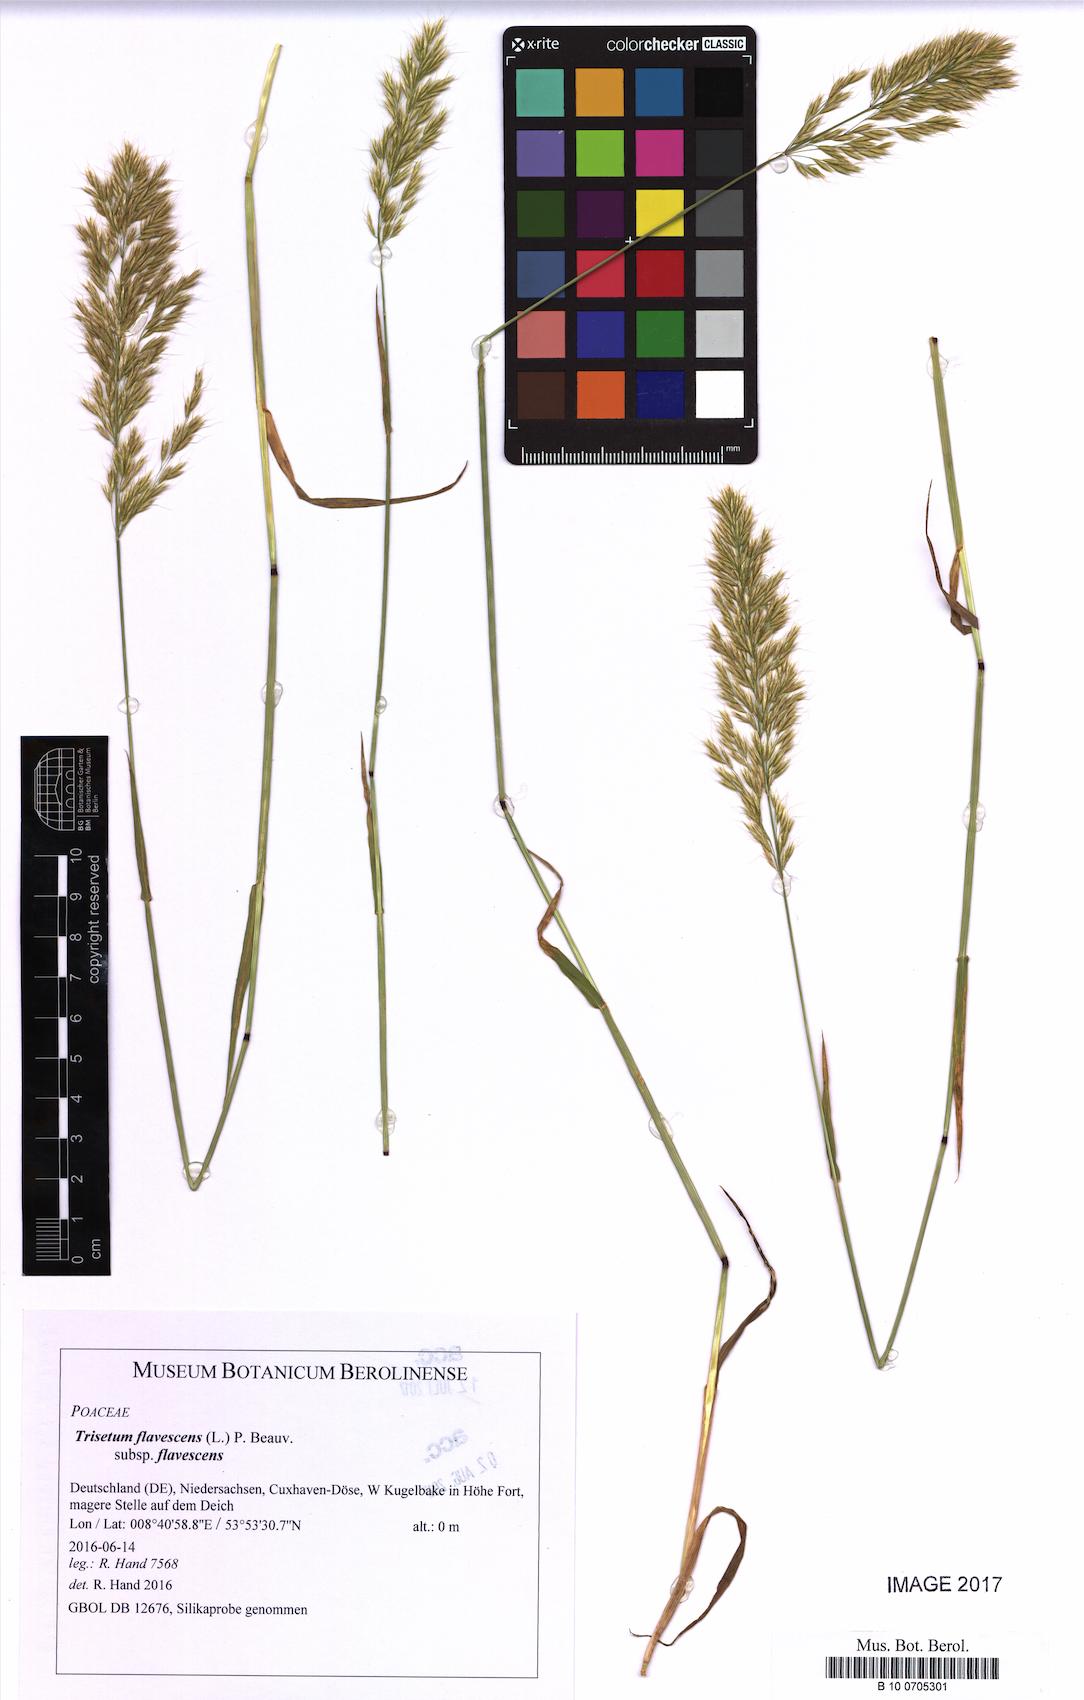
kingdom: Plantae
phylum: Tracheophyta
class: Liliopsida
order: Poales
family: Poaceae
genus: Trisetum
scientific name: Trisetum flavescens
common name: Yellow oat-grass
